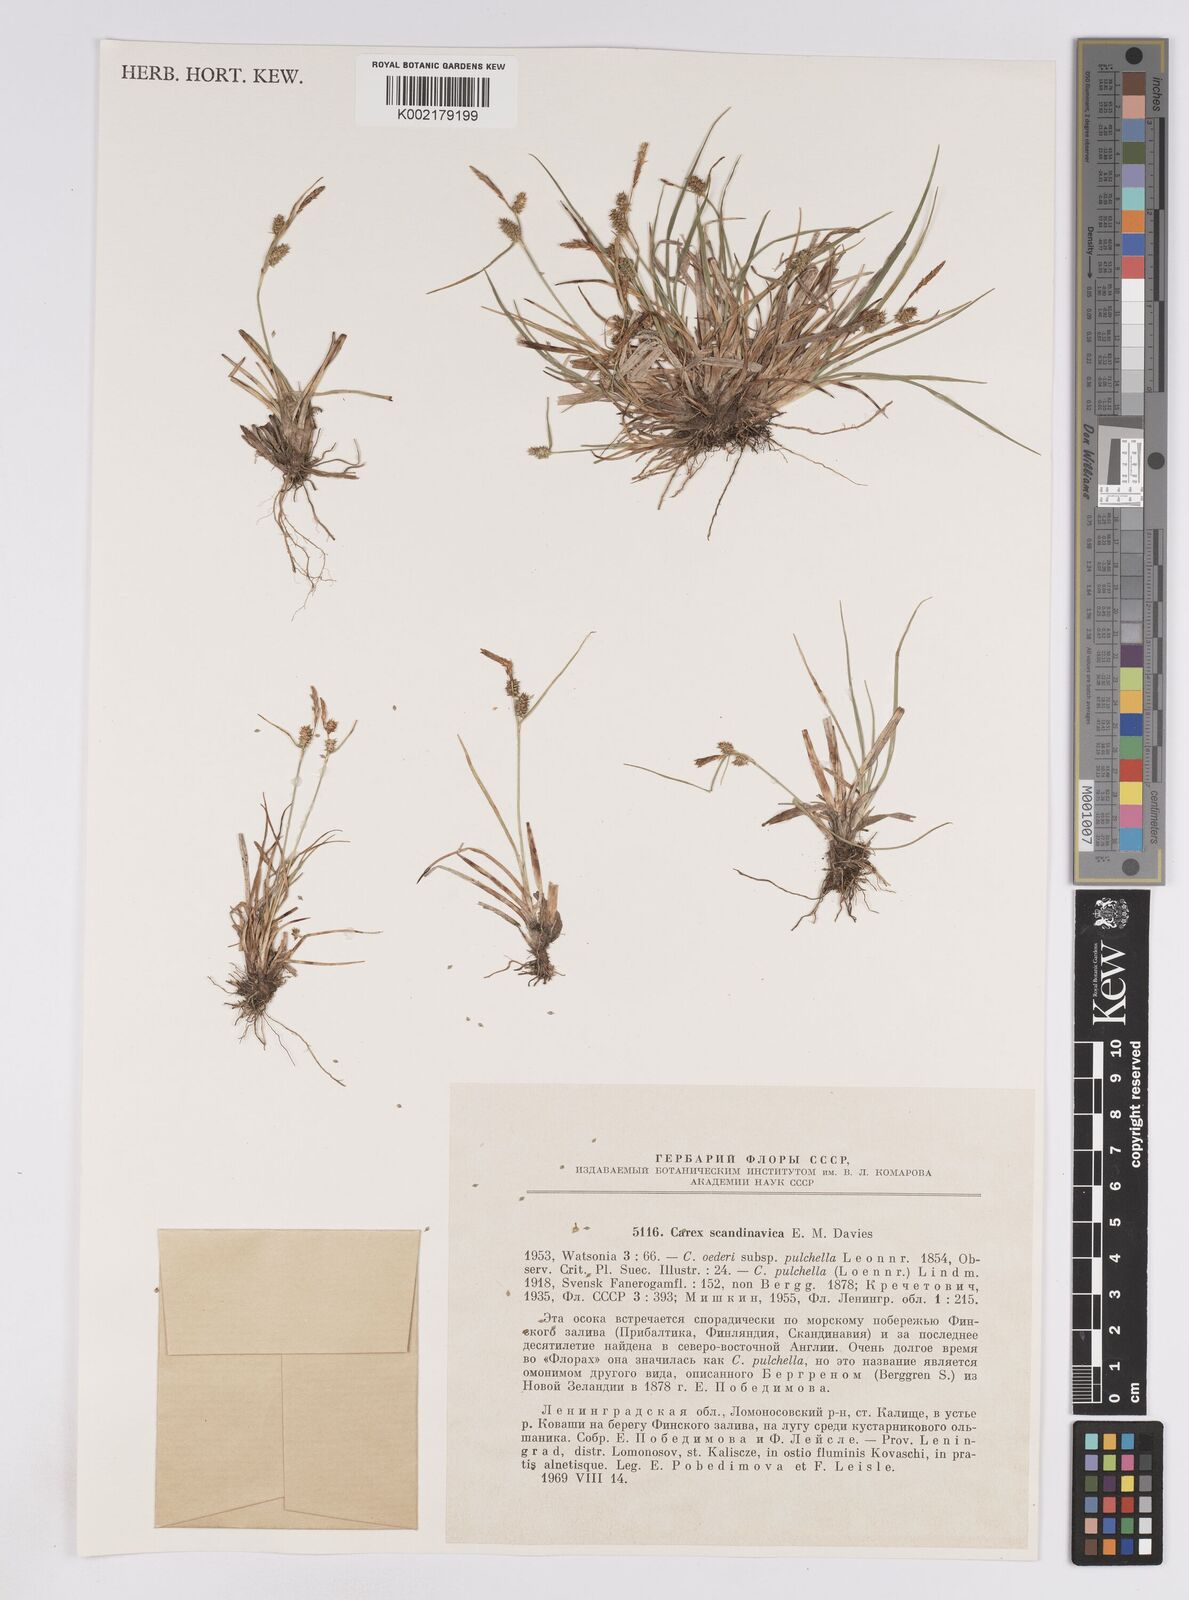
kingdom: Plantae
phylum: Tracheophyta
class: Liliopsida
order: Poales
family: Cyperaceae
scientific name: Cyperaceae
